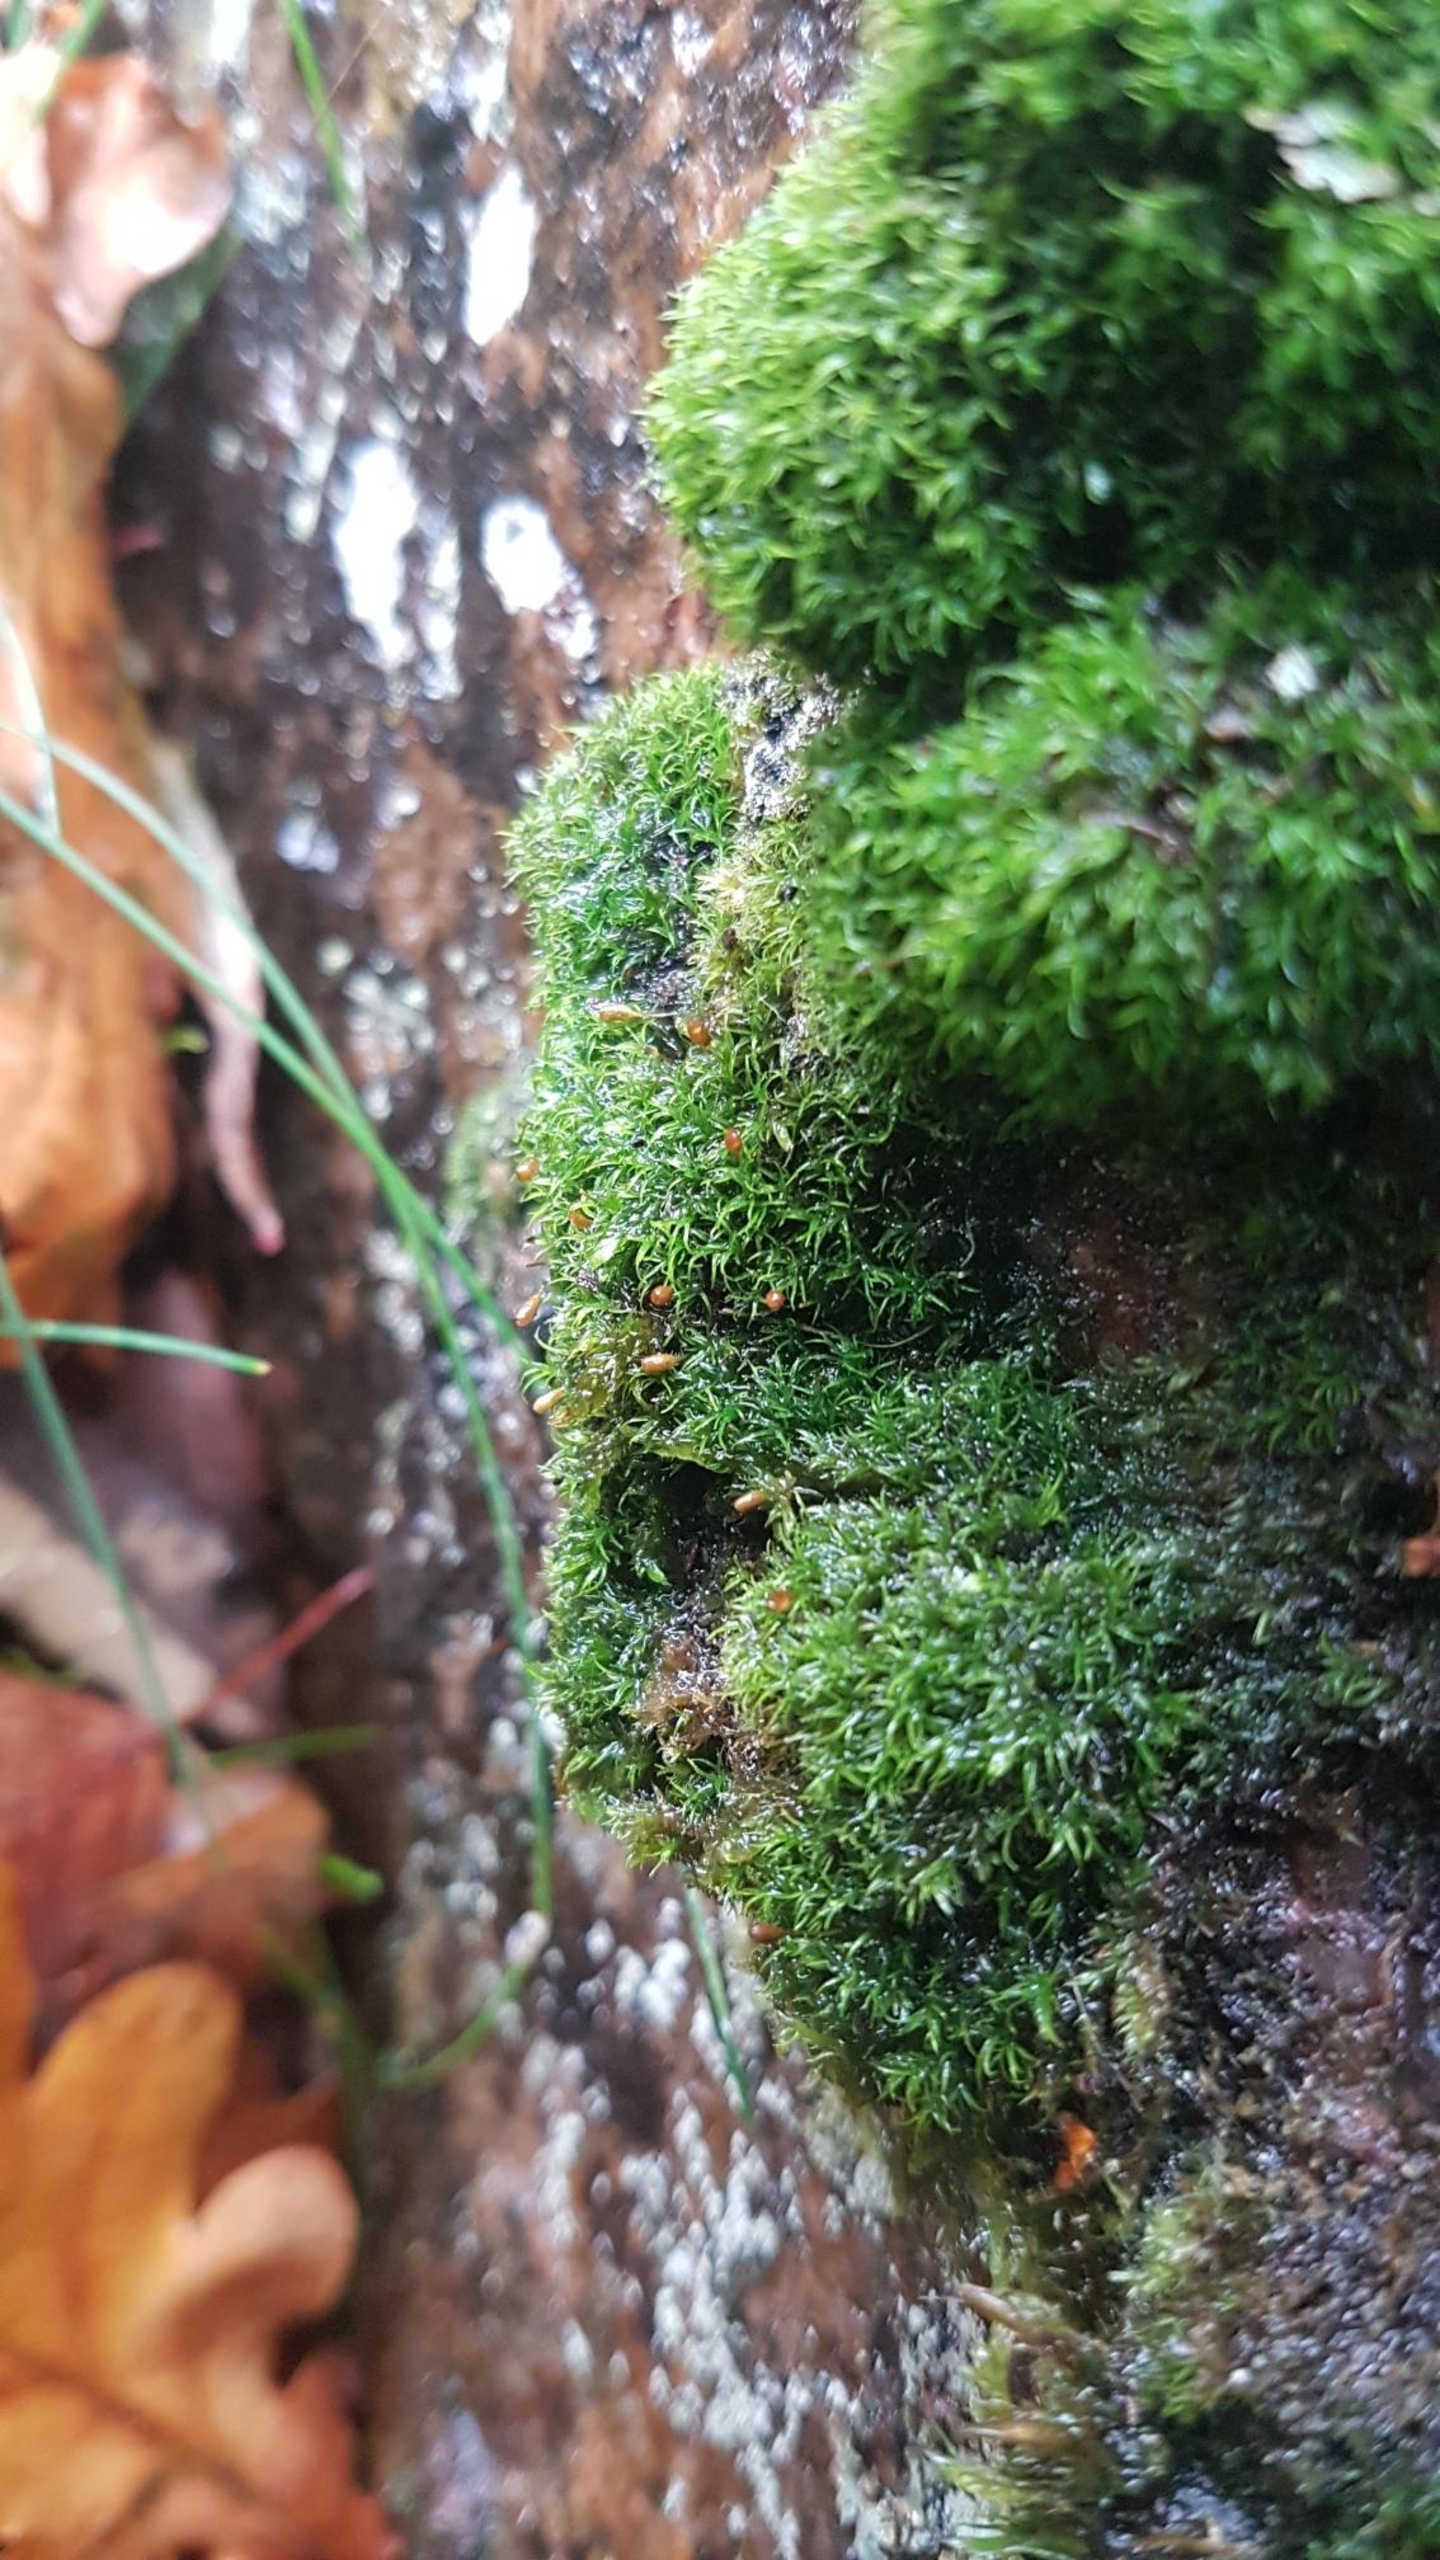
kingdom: Plantae
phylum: Bryophyta
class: Bryopsida
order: Dicranales
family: Rhabdoweisiaceae
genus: Cynodontium
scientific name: Cynodontium bruntonii
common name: Klippe-smudsmos
